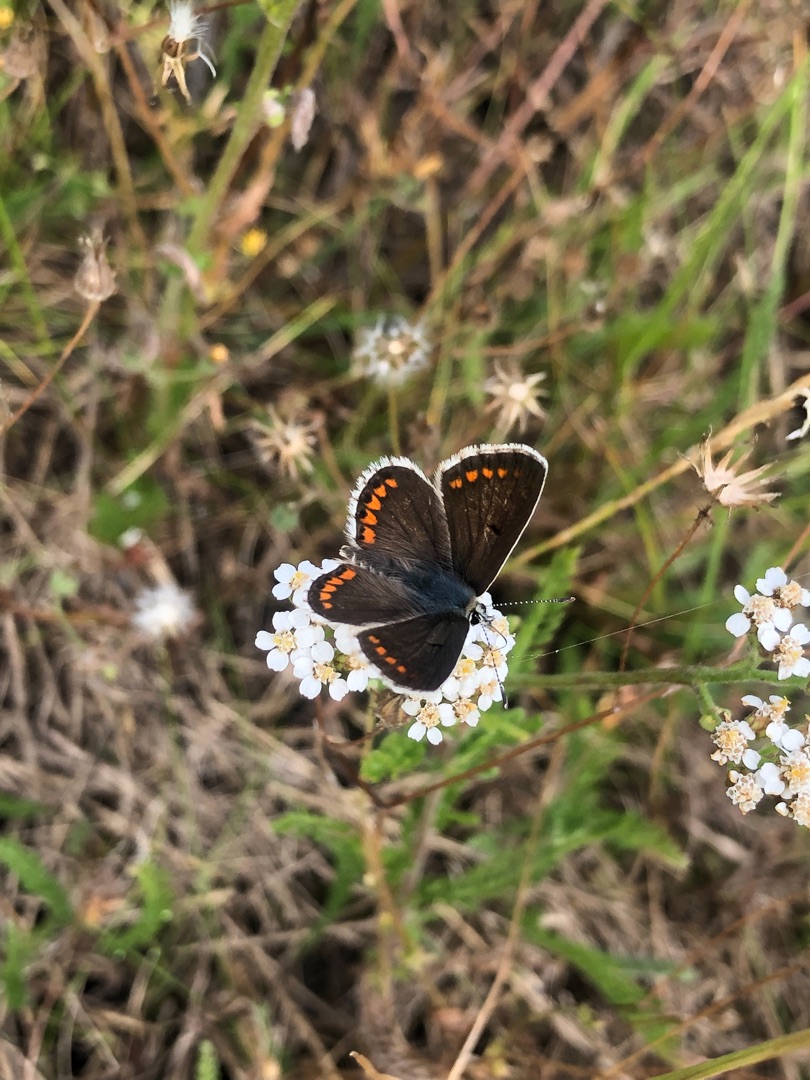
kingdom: Animalia
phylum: Arthropoda
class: Insecta
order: Lepidoptera
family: Lycaenidae
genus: Aricia
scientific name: Aricia agestis
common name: Rødplettet blåfugl
